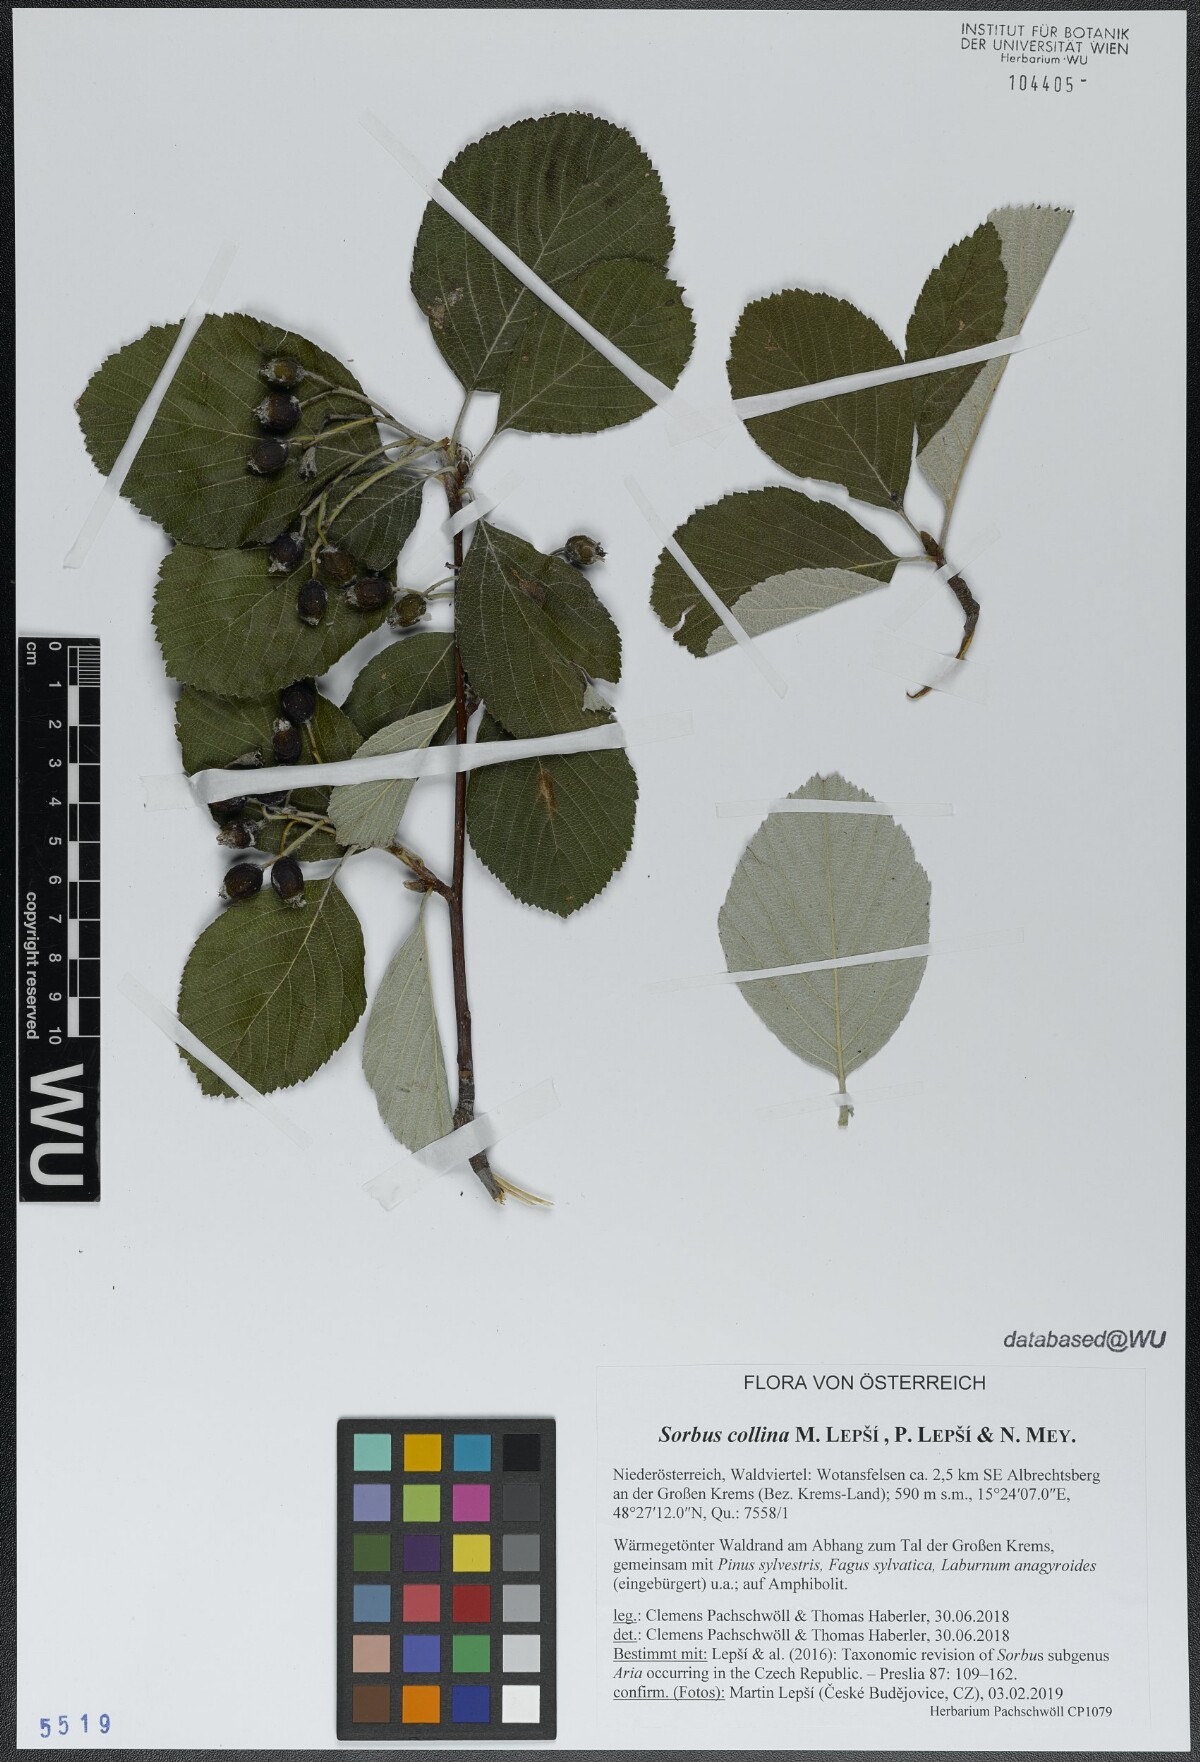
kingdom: Plantae
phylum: Tracheophyta
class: Magnoliopsida
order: Rosales
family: Rosaceae
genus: Aria
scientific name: Aria collina
